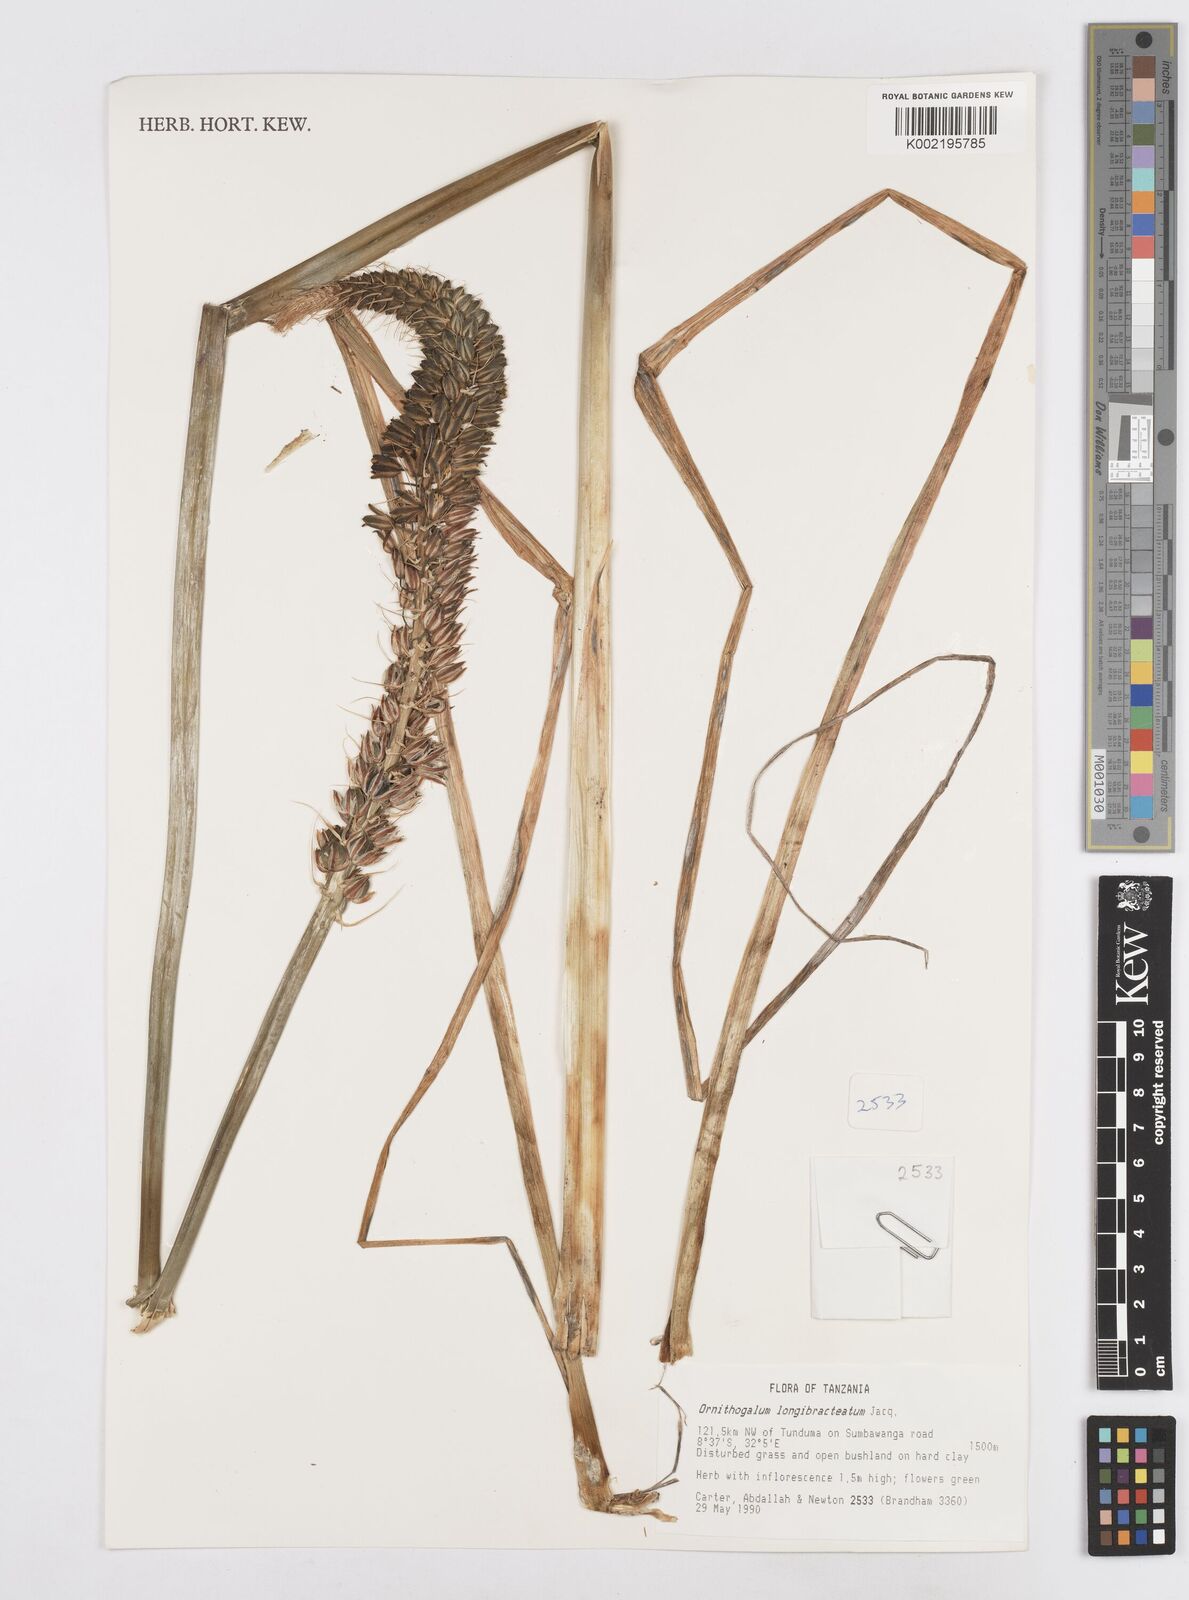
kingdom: Plantae
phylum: Tracheophyta
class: Liliopsida
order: Asparagales
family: Asparagaceae
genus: Albuca
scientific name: Albuca bracteata
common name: Sea-onion
